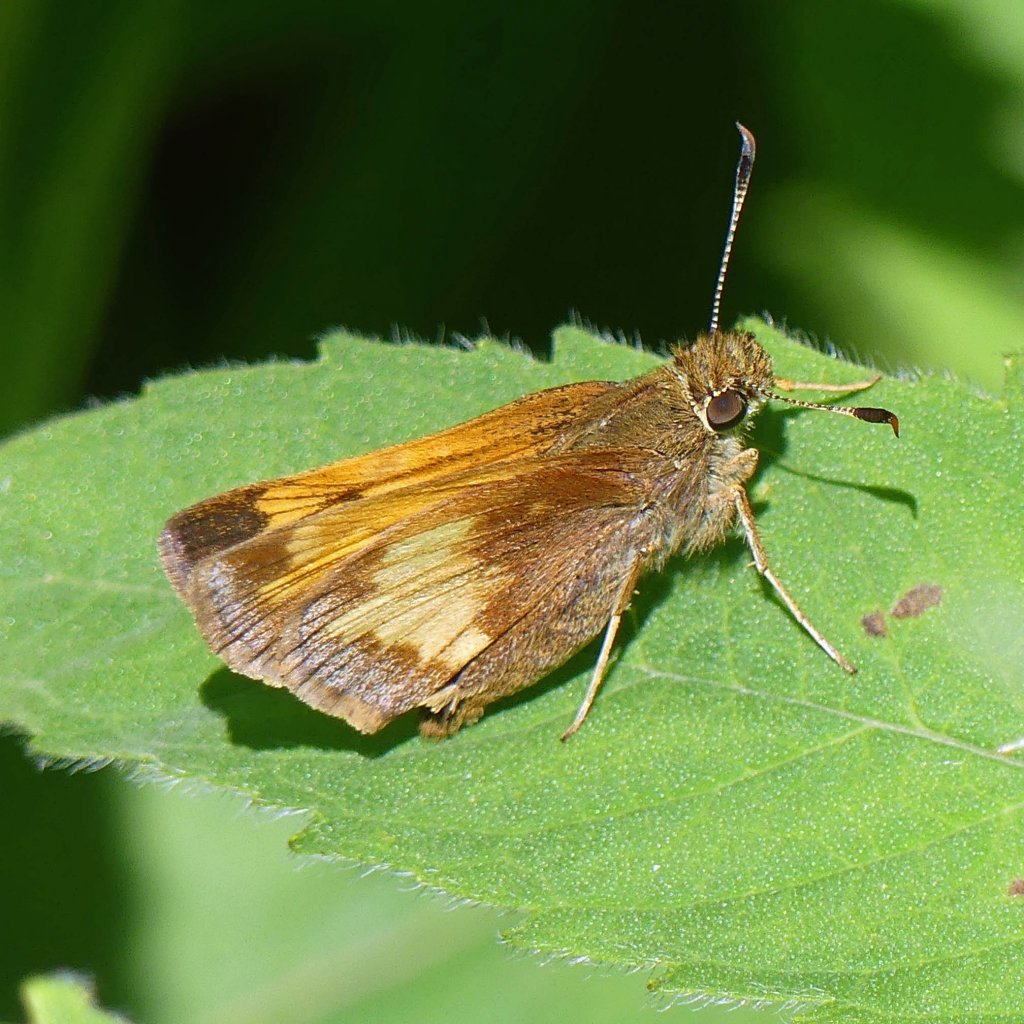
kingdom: Animalia
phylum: Arthropoda
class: Insecta
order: Lepidoptera
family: Hesperiidae
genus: Lon
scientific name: Lon hobomok
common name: Hobomok Skipper
